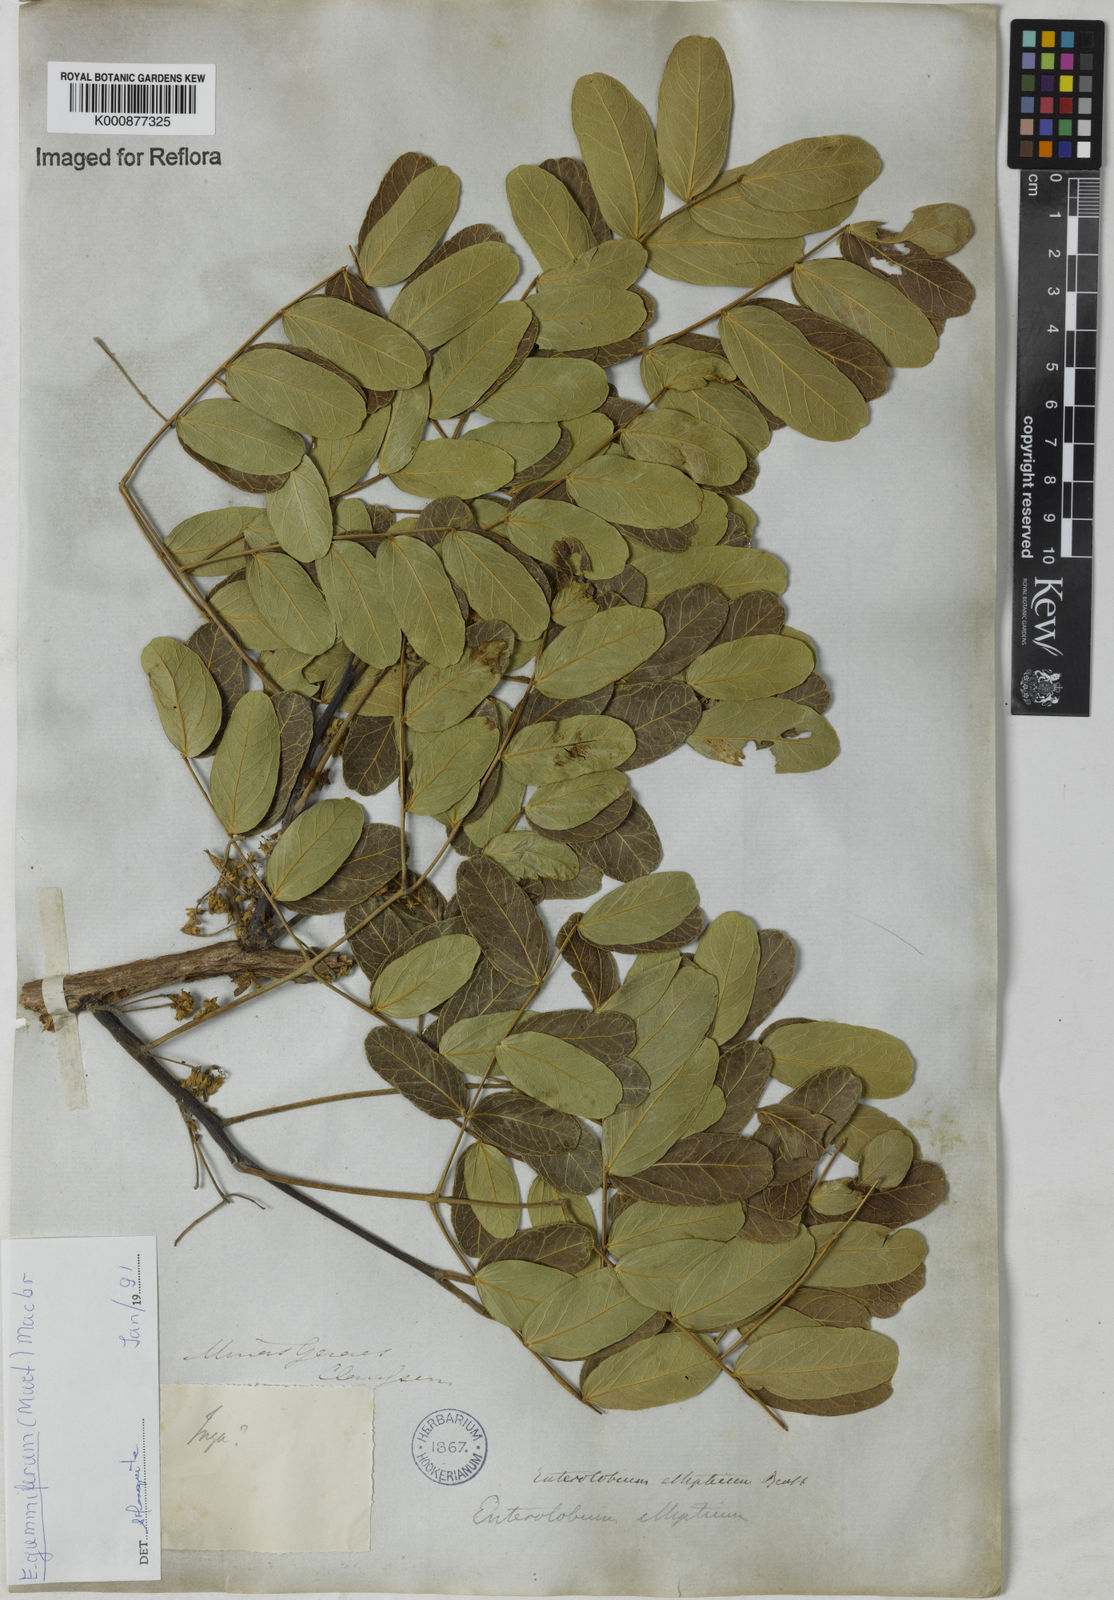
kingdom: Plantae
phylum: Tracheophyta
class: Magnoliopsida
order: Fabales
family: Fabaceae
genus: Enterolobium
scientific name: Enterolobium gummiferum
